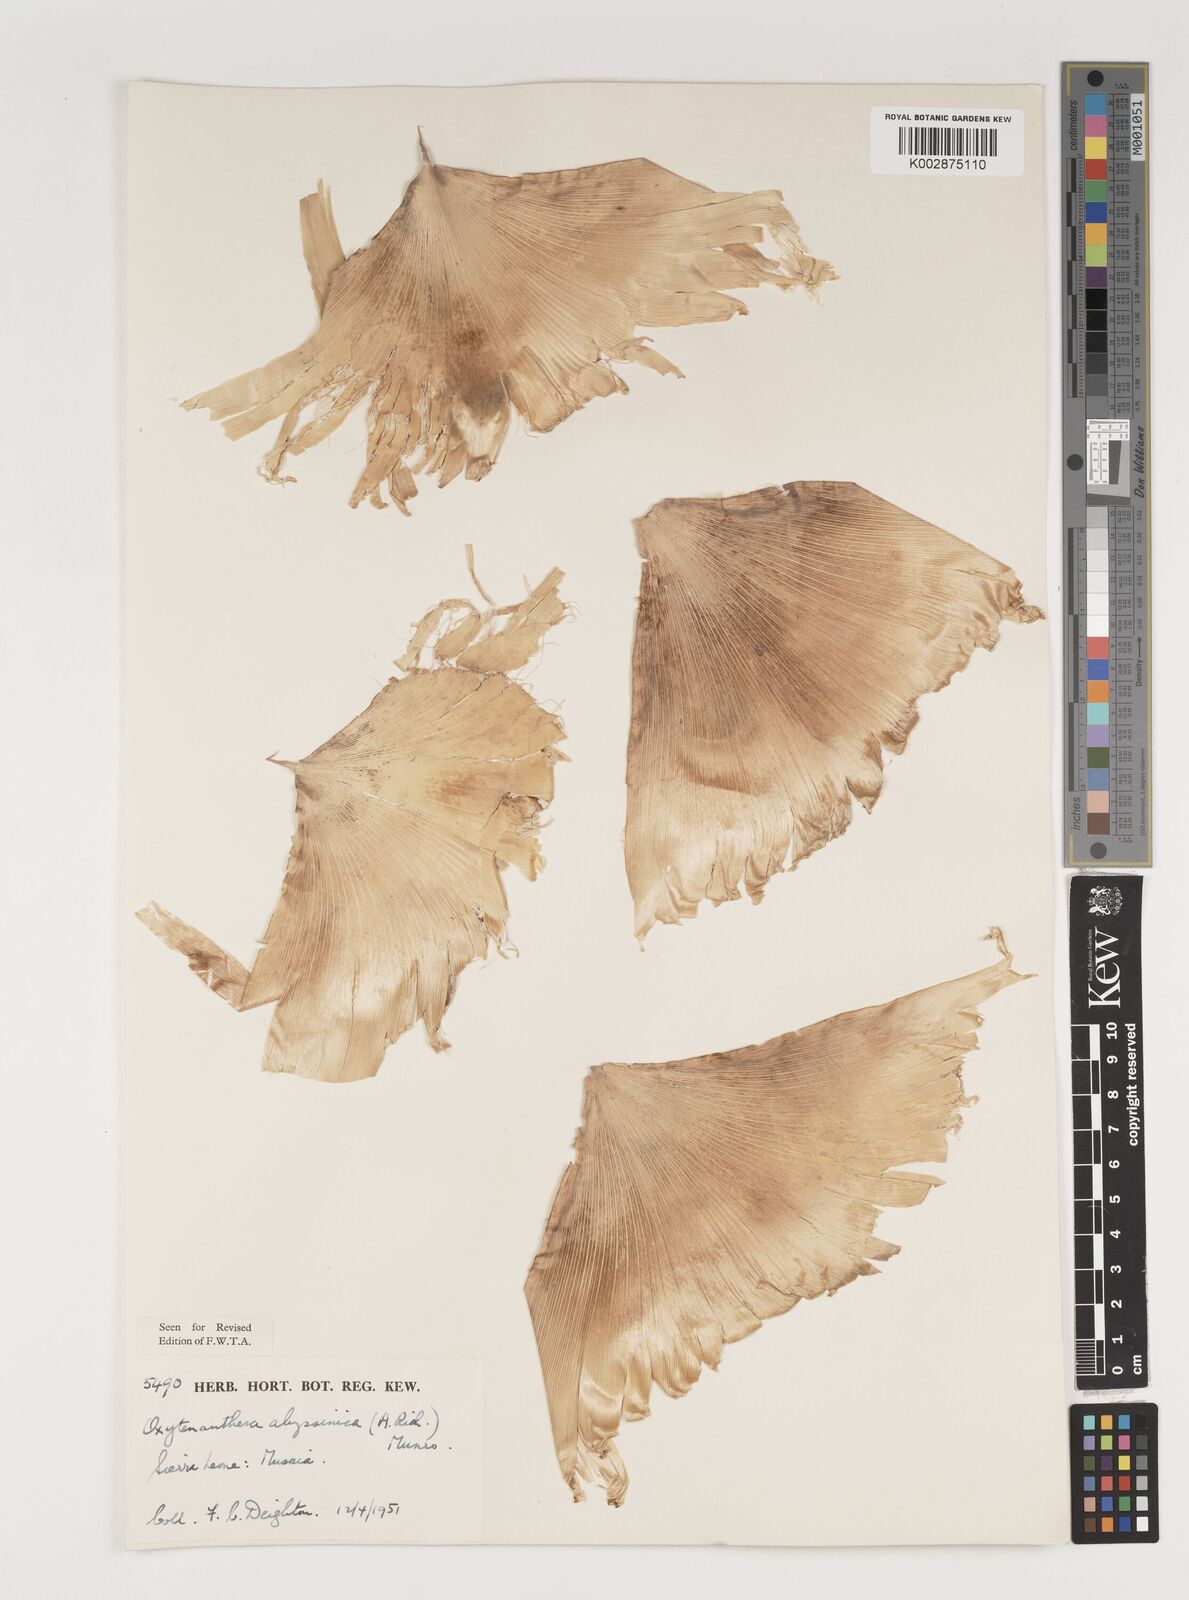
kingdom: Plantae
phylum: Tracheophyta
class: Liliopsida
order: Poales
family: Poaceae
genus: Oxytenanthera
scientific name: Oxytenanthera abyssinica
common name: Wine bamboo
